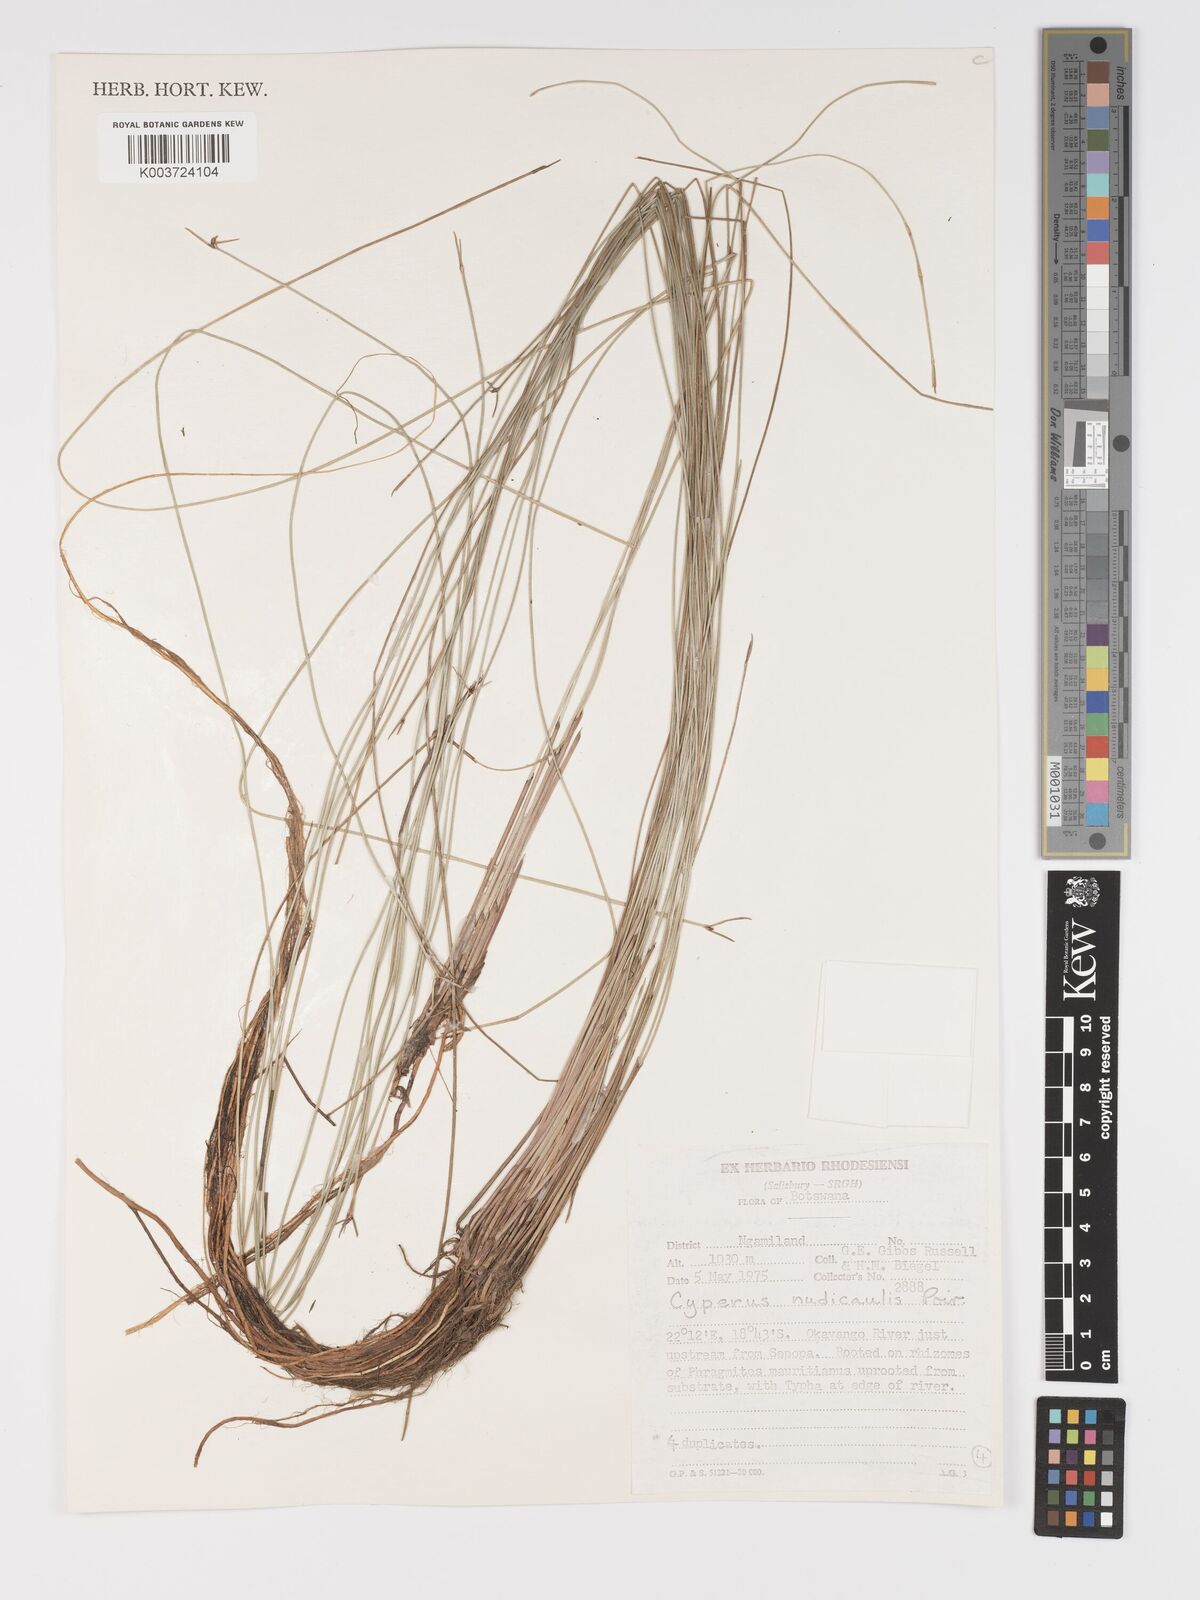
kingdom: Plantae
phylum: Tracheophyta
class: Liliopsida
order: Poales
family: Cyperaceae
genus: Cyperus
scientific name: Cyperus compressus
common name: Poorland flatsedge
